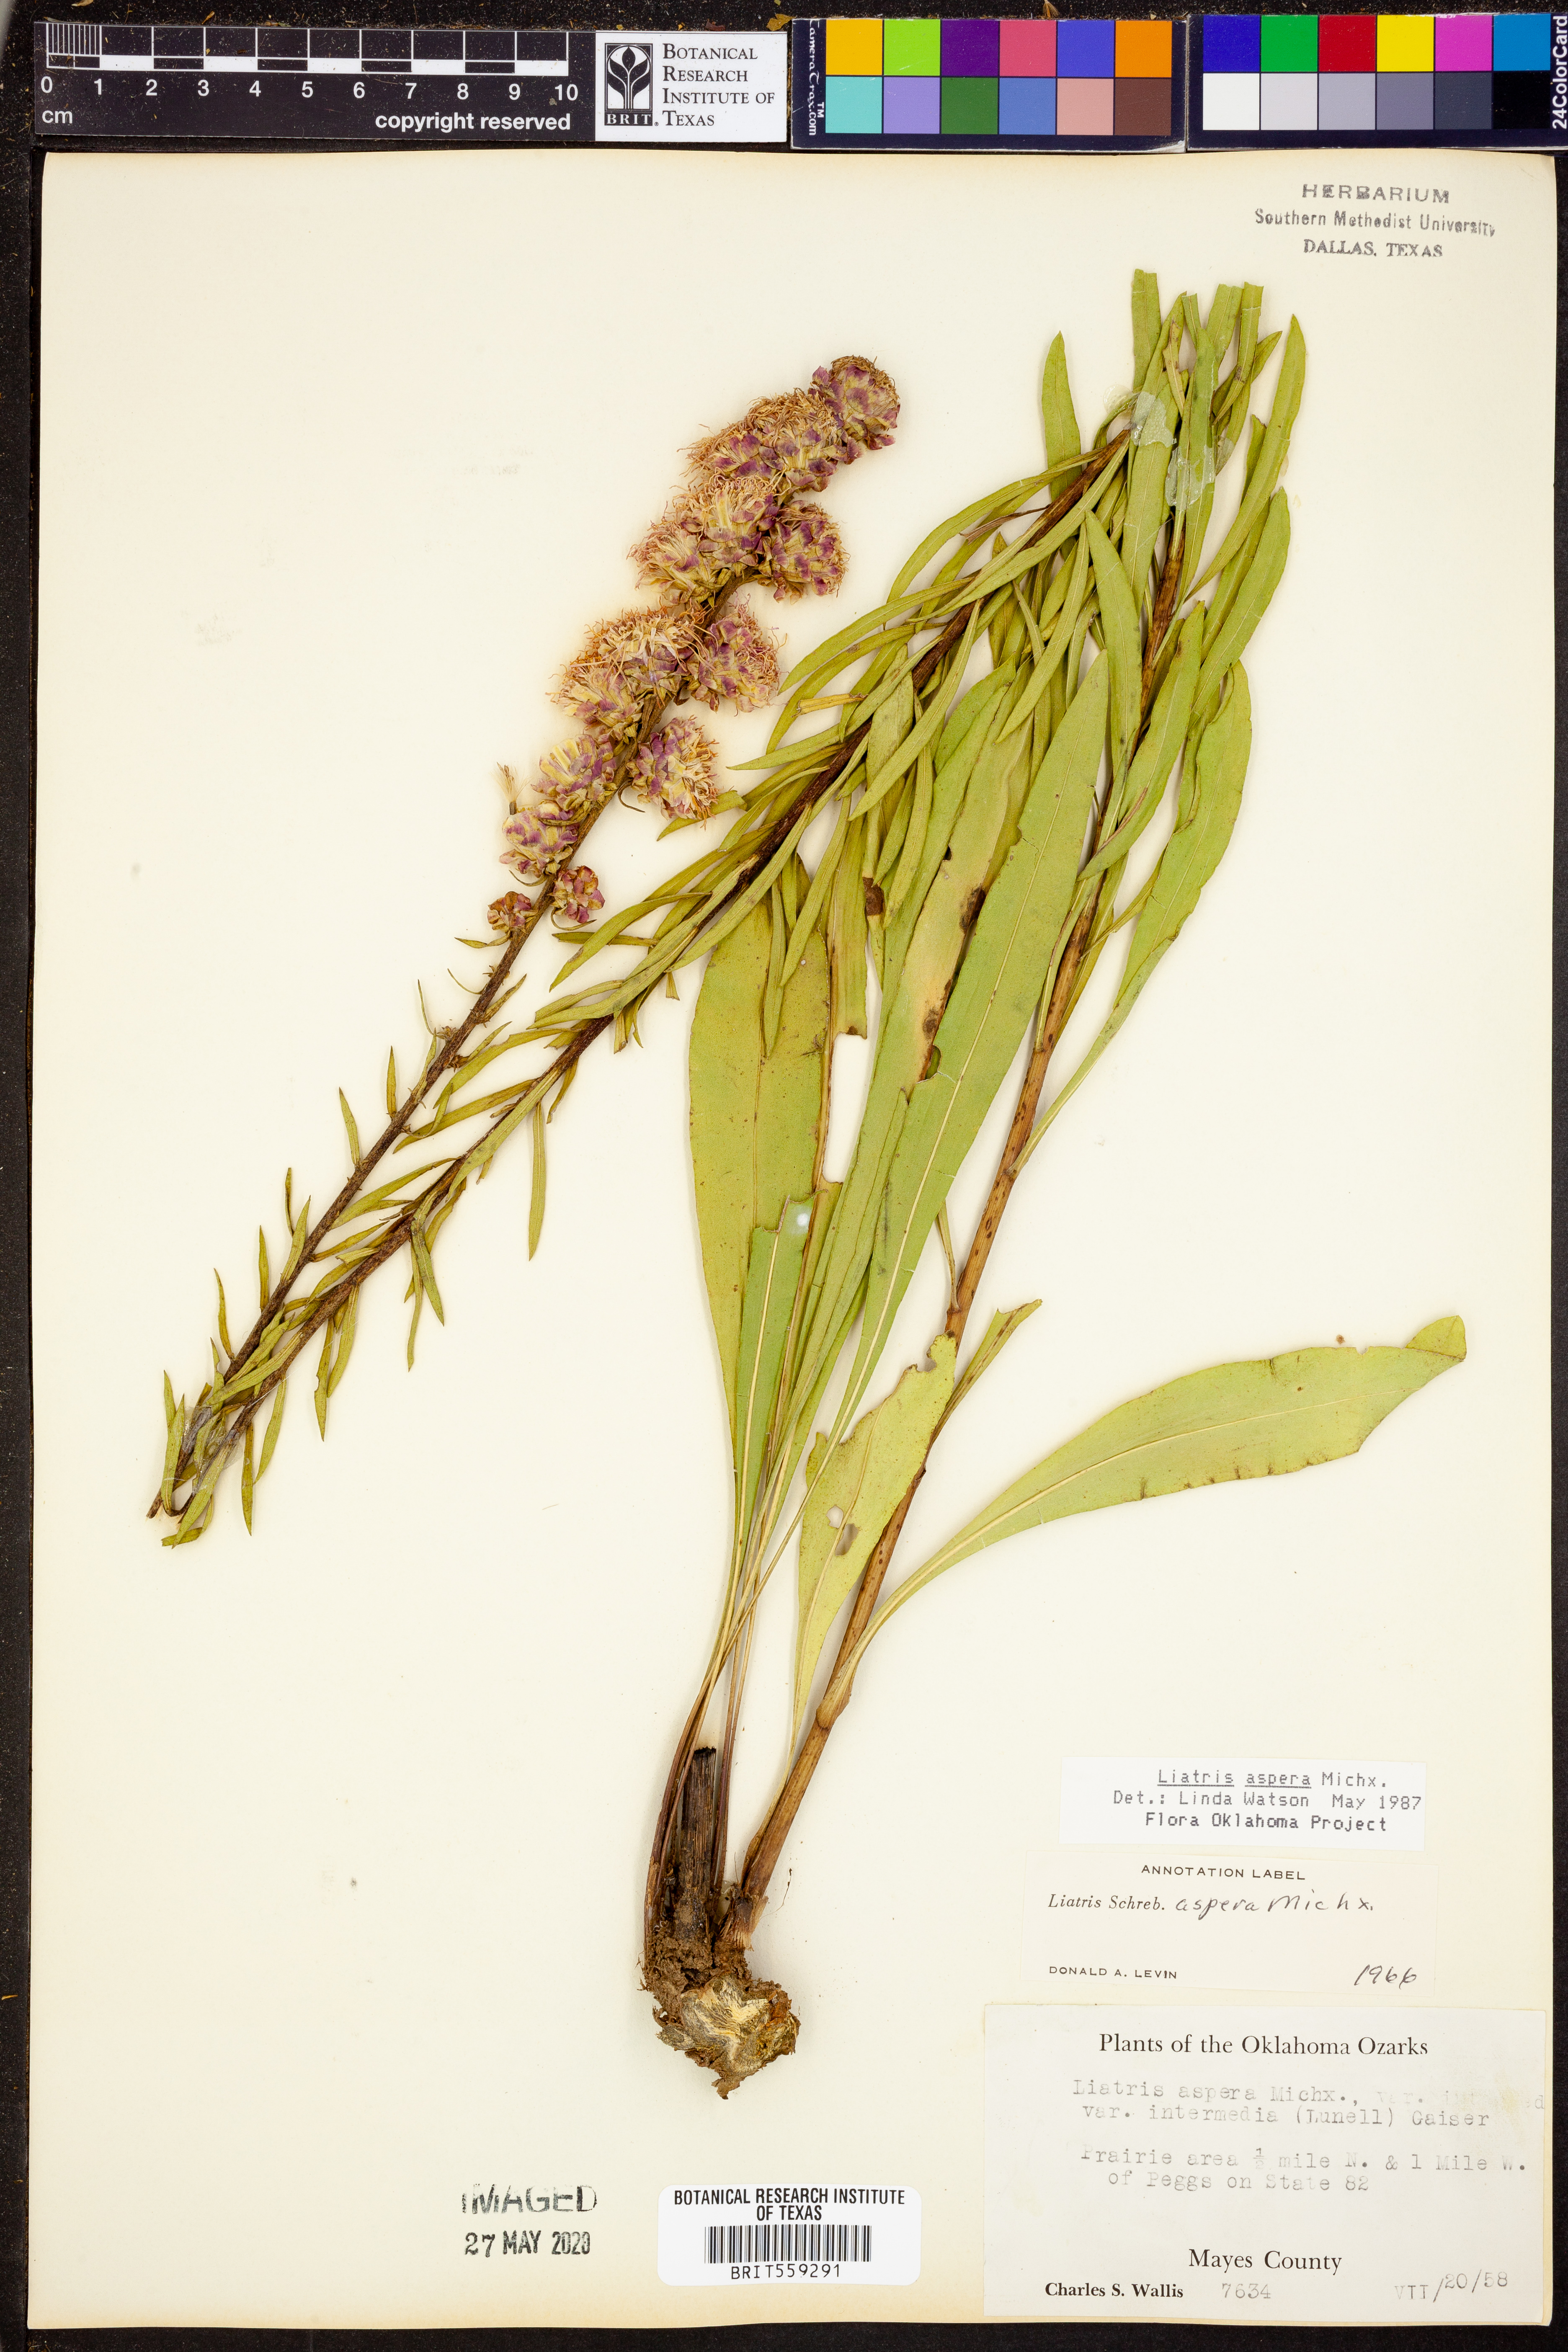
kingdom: Plantae
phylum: Tracheophyta
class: Magnoliopsida
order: Asterales
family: Asteraceae
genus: Liatris
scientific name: Liatris aspera
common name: Lacerate blazing-star
